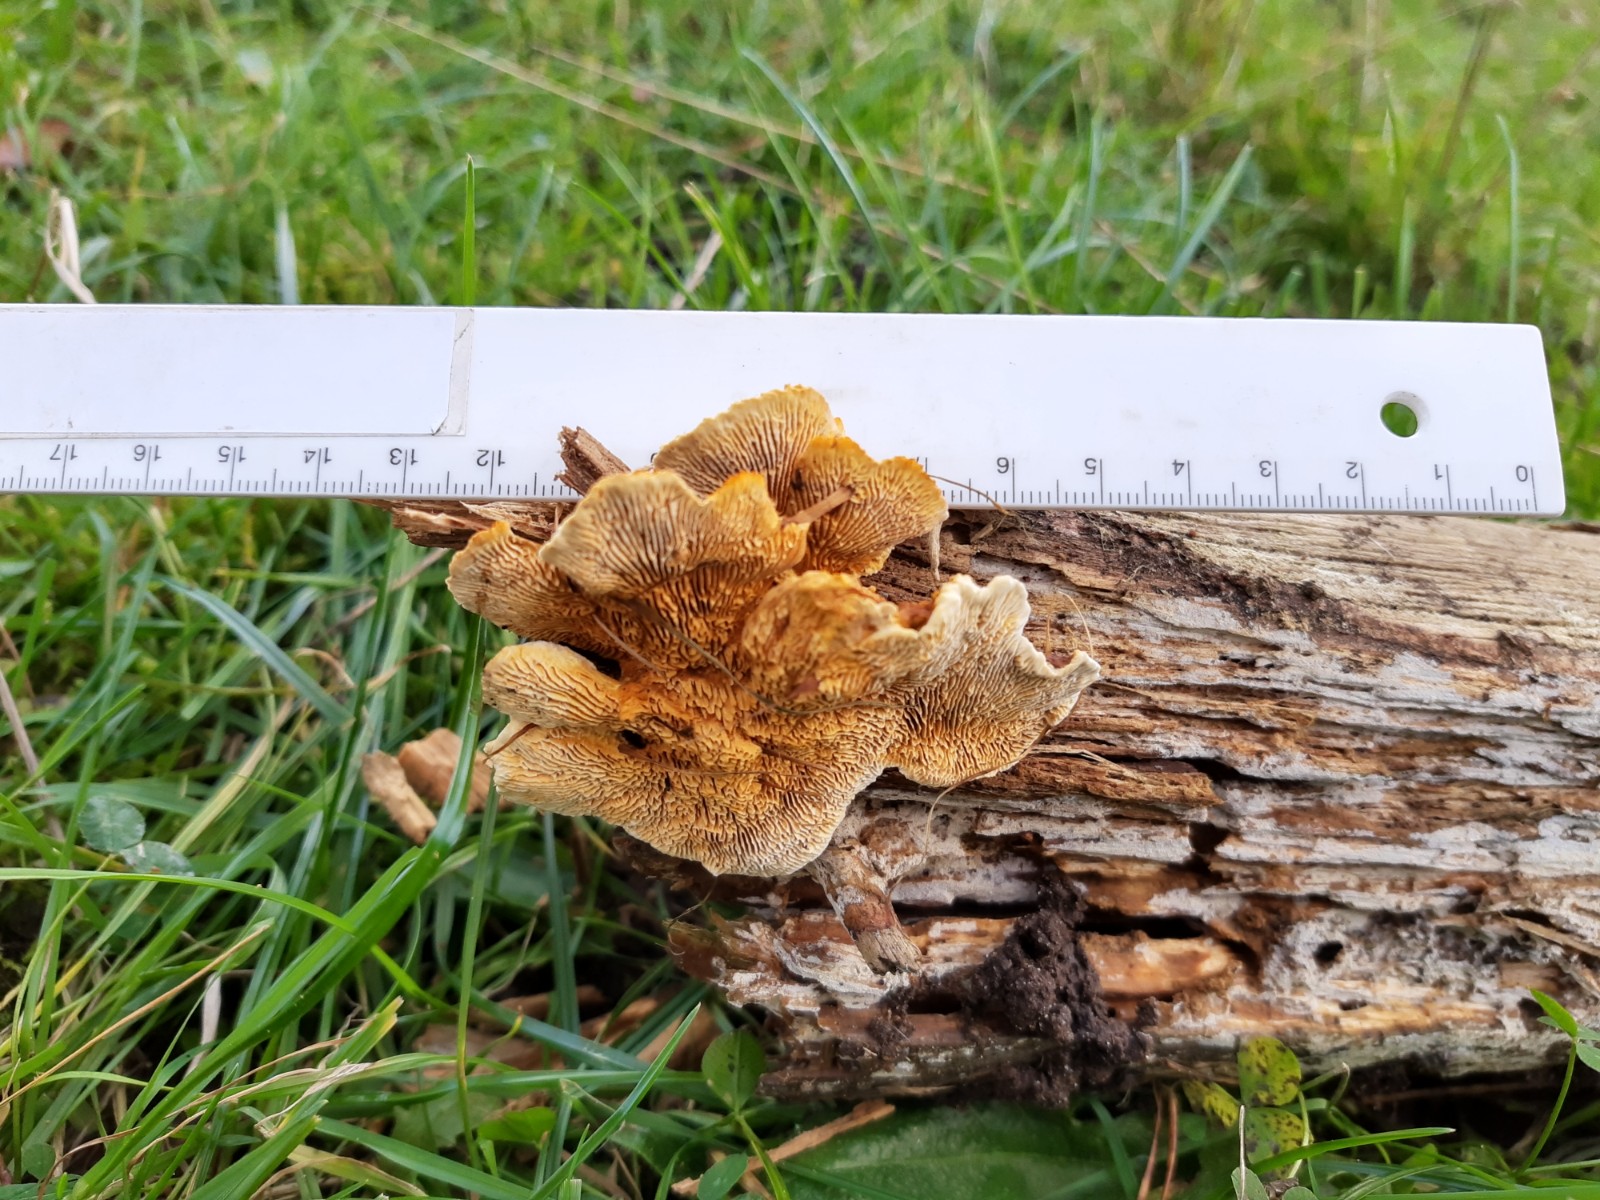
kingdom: Fungi
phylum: Basidiomycota
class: Agaricomycetes
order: Gloeophyllales
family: Gloeophyllaceae
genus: Gloeophyllum
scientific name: Gloeophyllum sepiarium
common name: fyrre-korkhat
